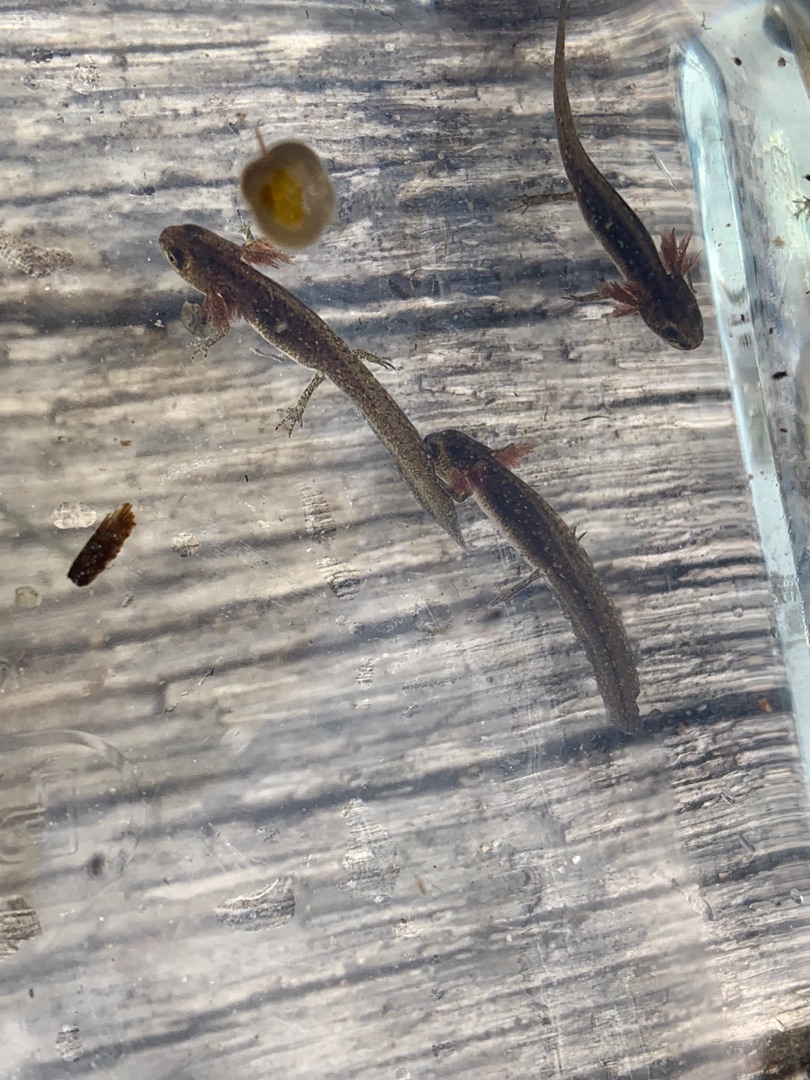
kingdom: Animalia
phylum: Chordata
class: Amphibia
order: Caudata
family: Salamandridae
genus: Lissotriton
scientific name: Lissotriton vulgaris
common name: Lille vandsalamander
